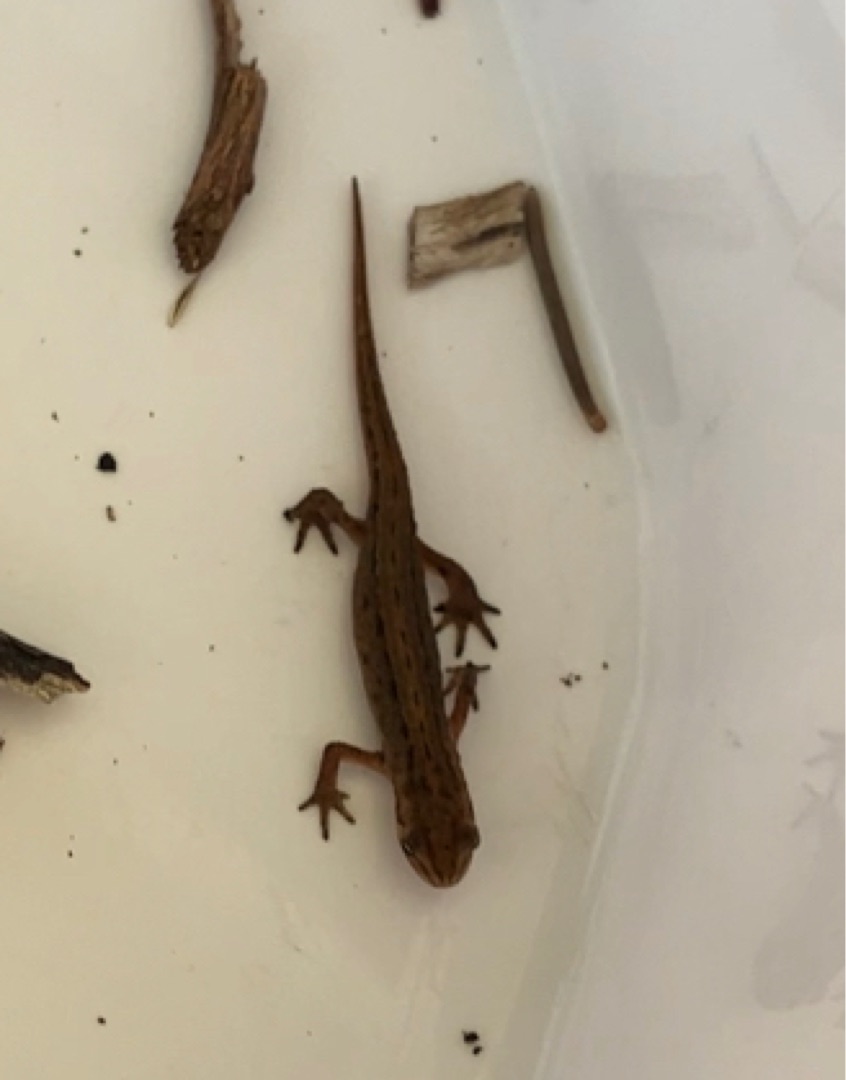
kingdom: Animalia
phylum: Chordata
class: Amphibia
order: Caudata
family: Salamandridae
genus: Lissotriton
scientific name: Lissotriton vulgaris
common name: Lille vandsalamander
